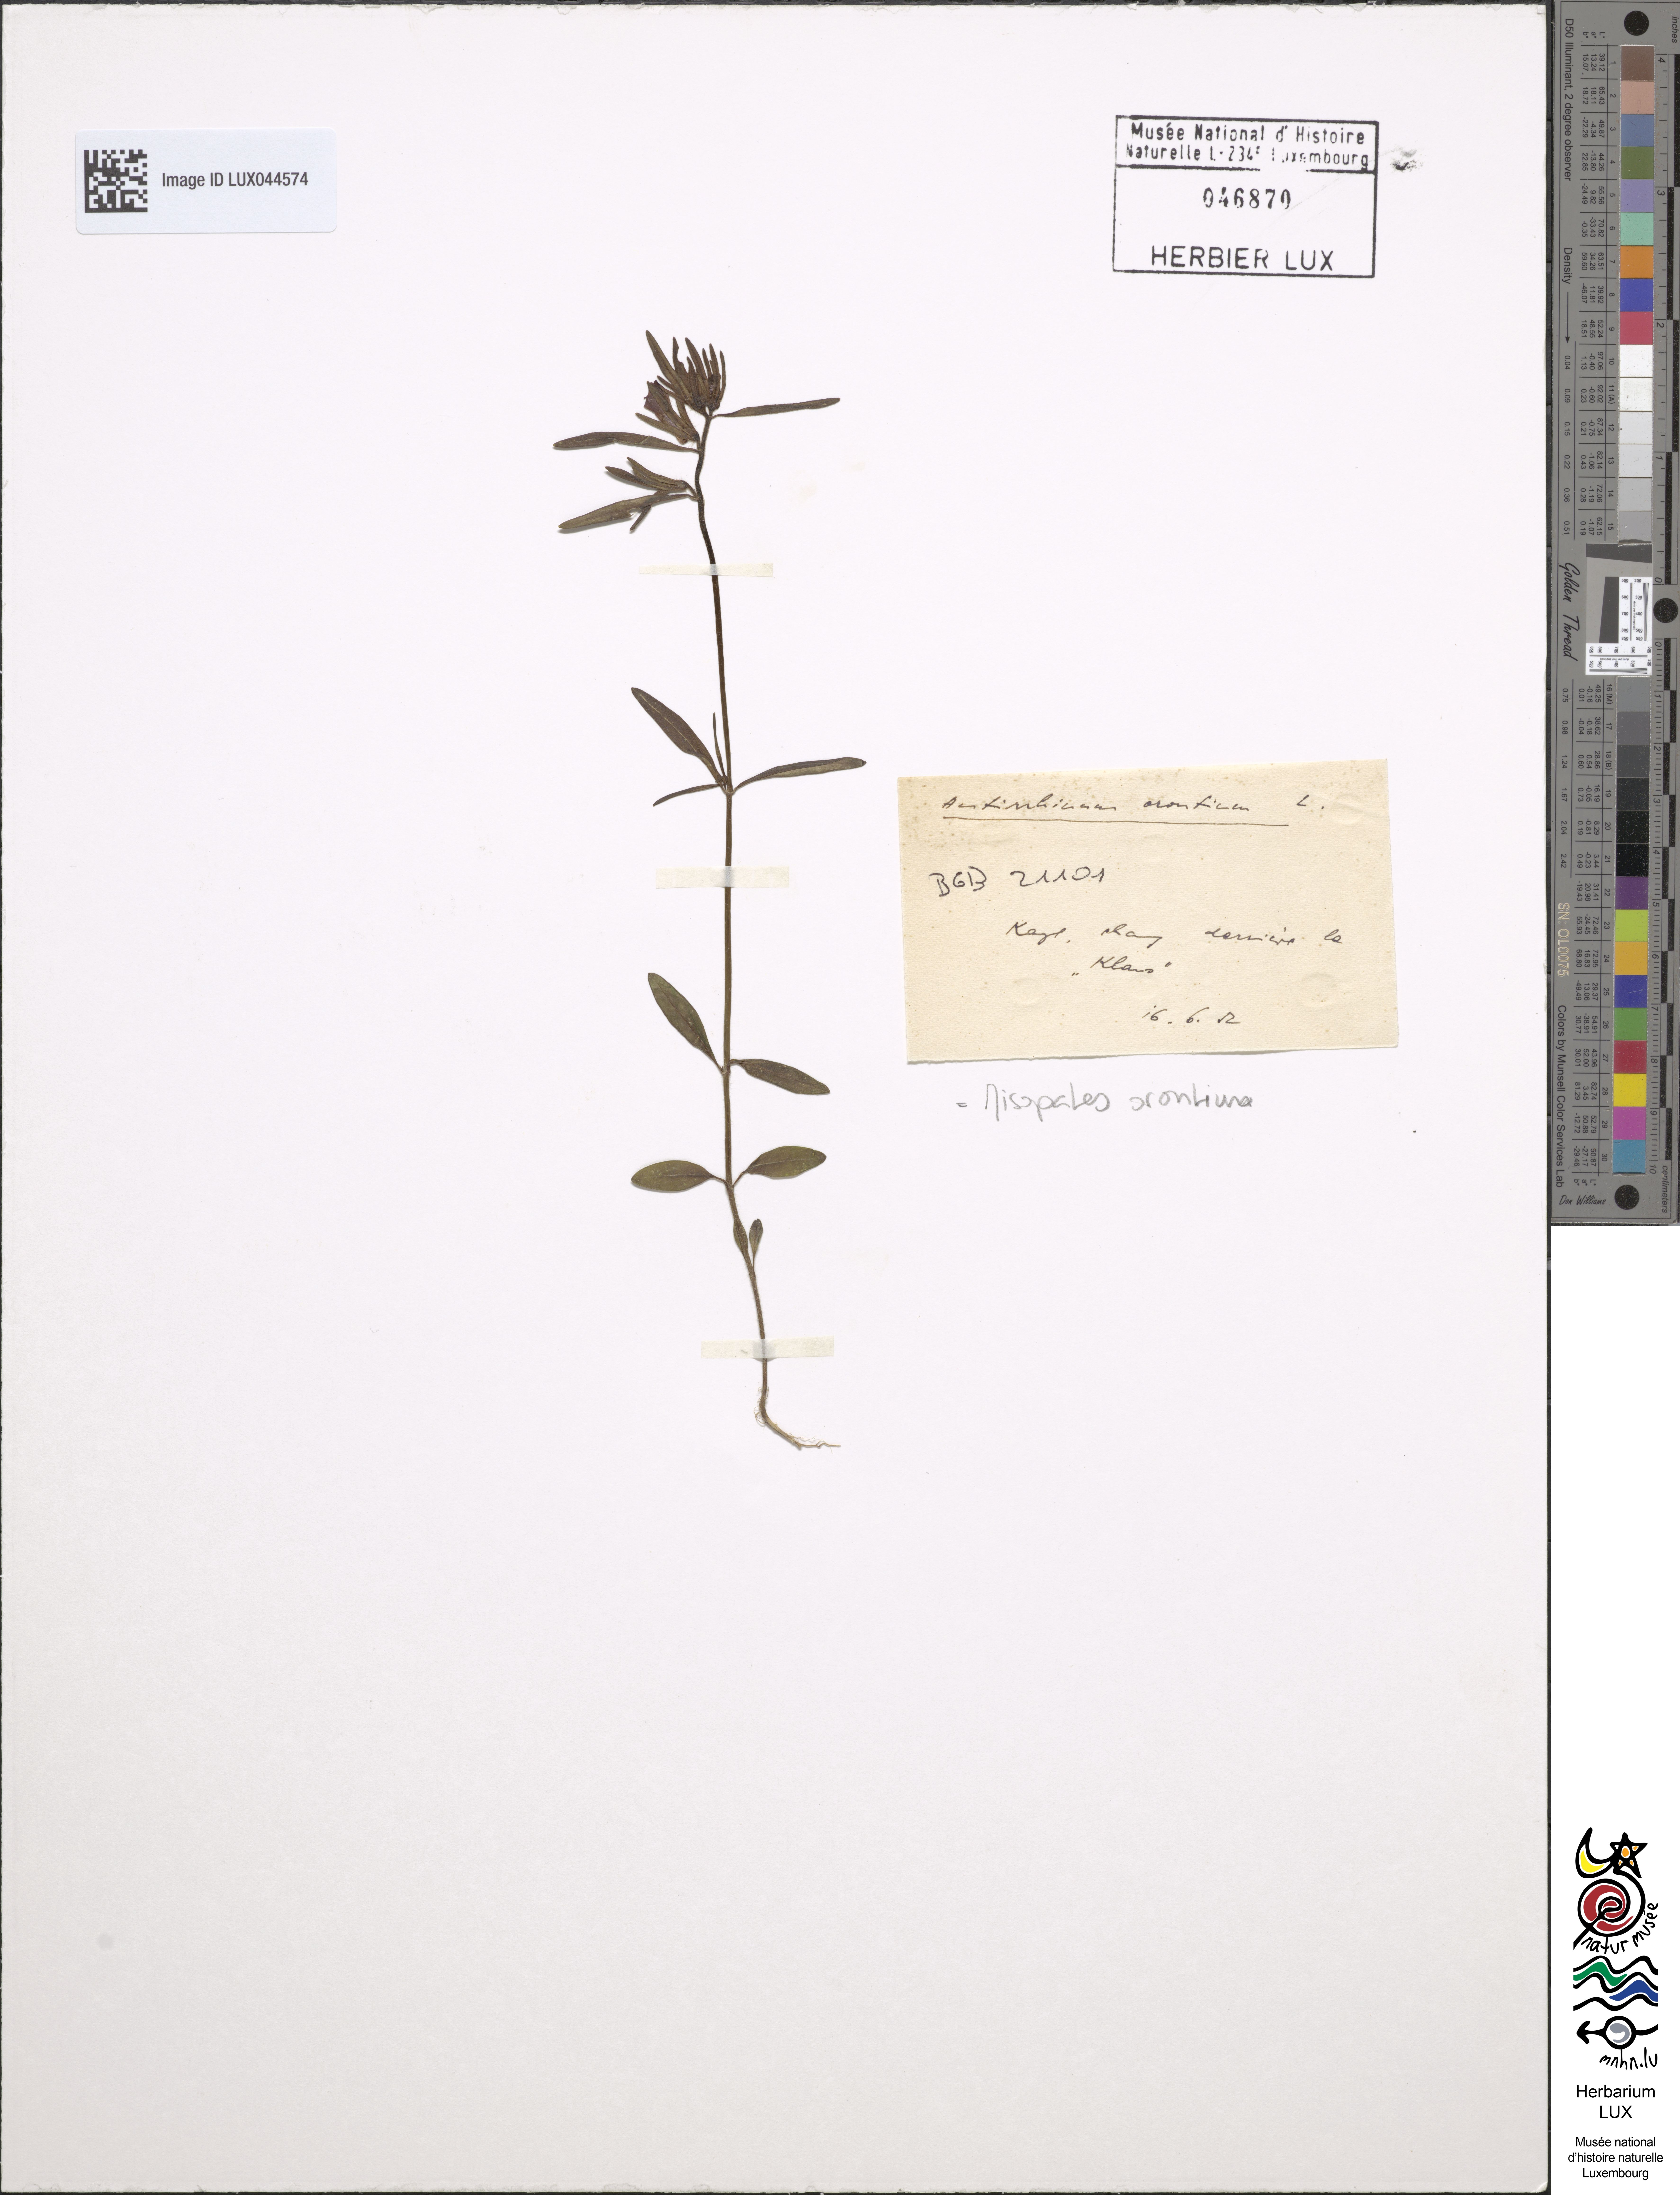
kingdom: Plantae
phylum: Tracheophyta
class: Magnoliopsida
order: Lamiales
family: Plantaginaceae
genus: Misopates
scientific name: Misopates orontium
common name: Weasel's-snout
